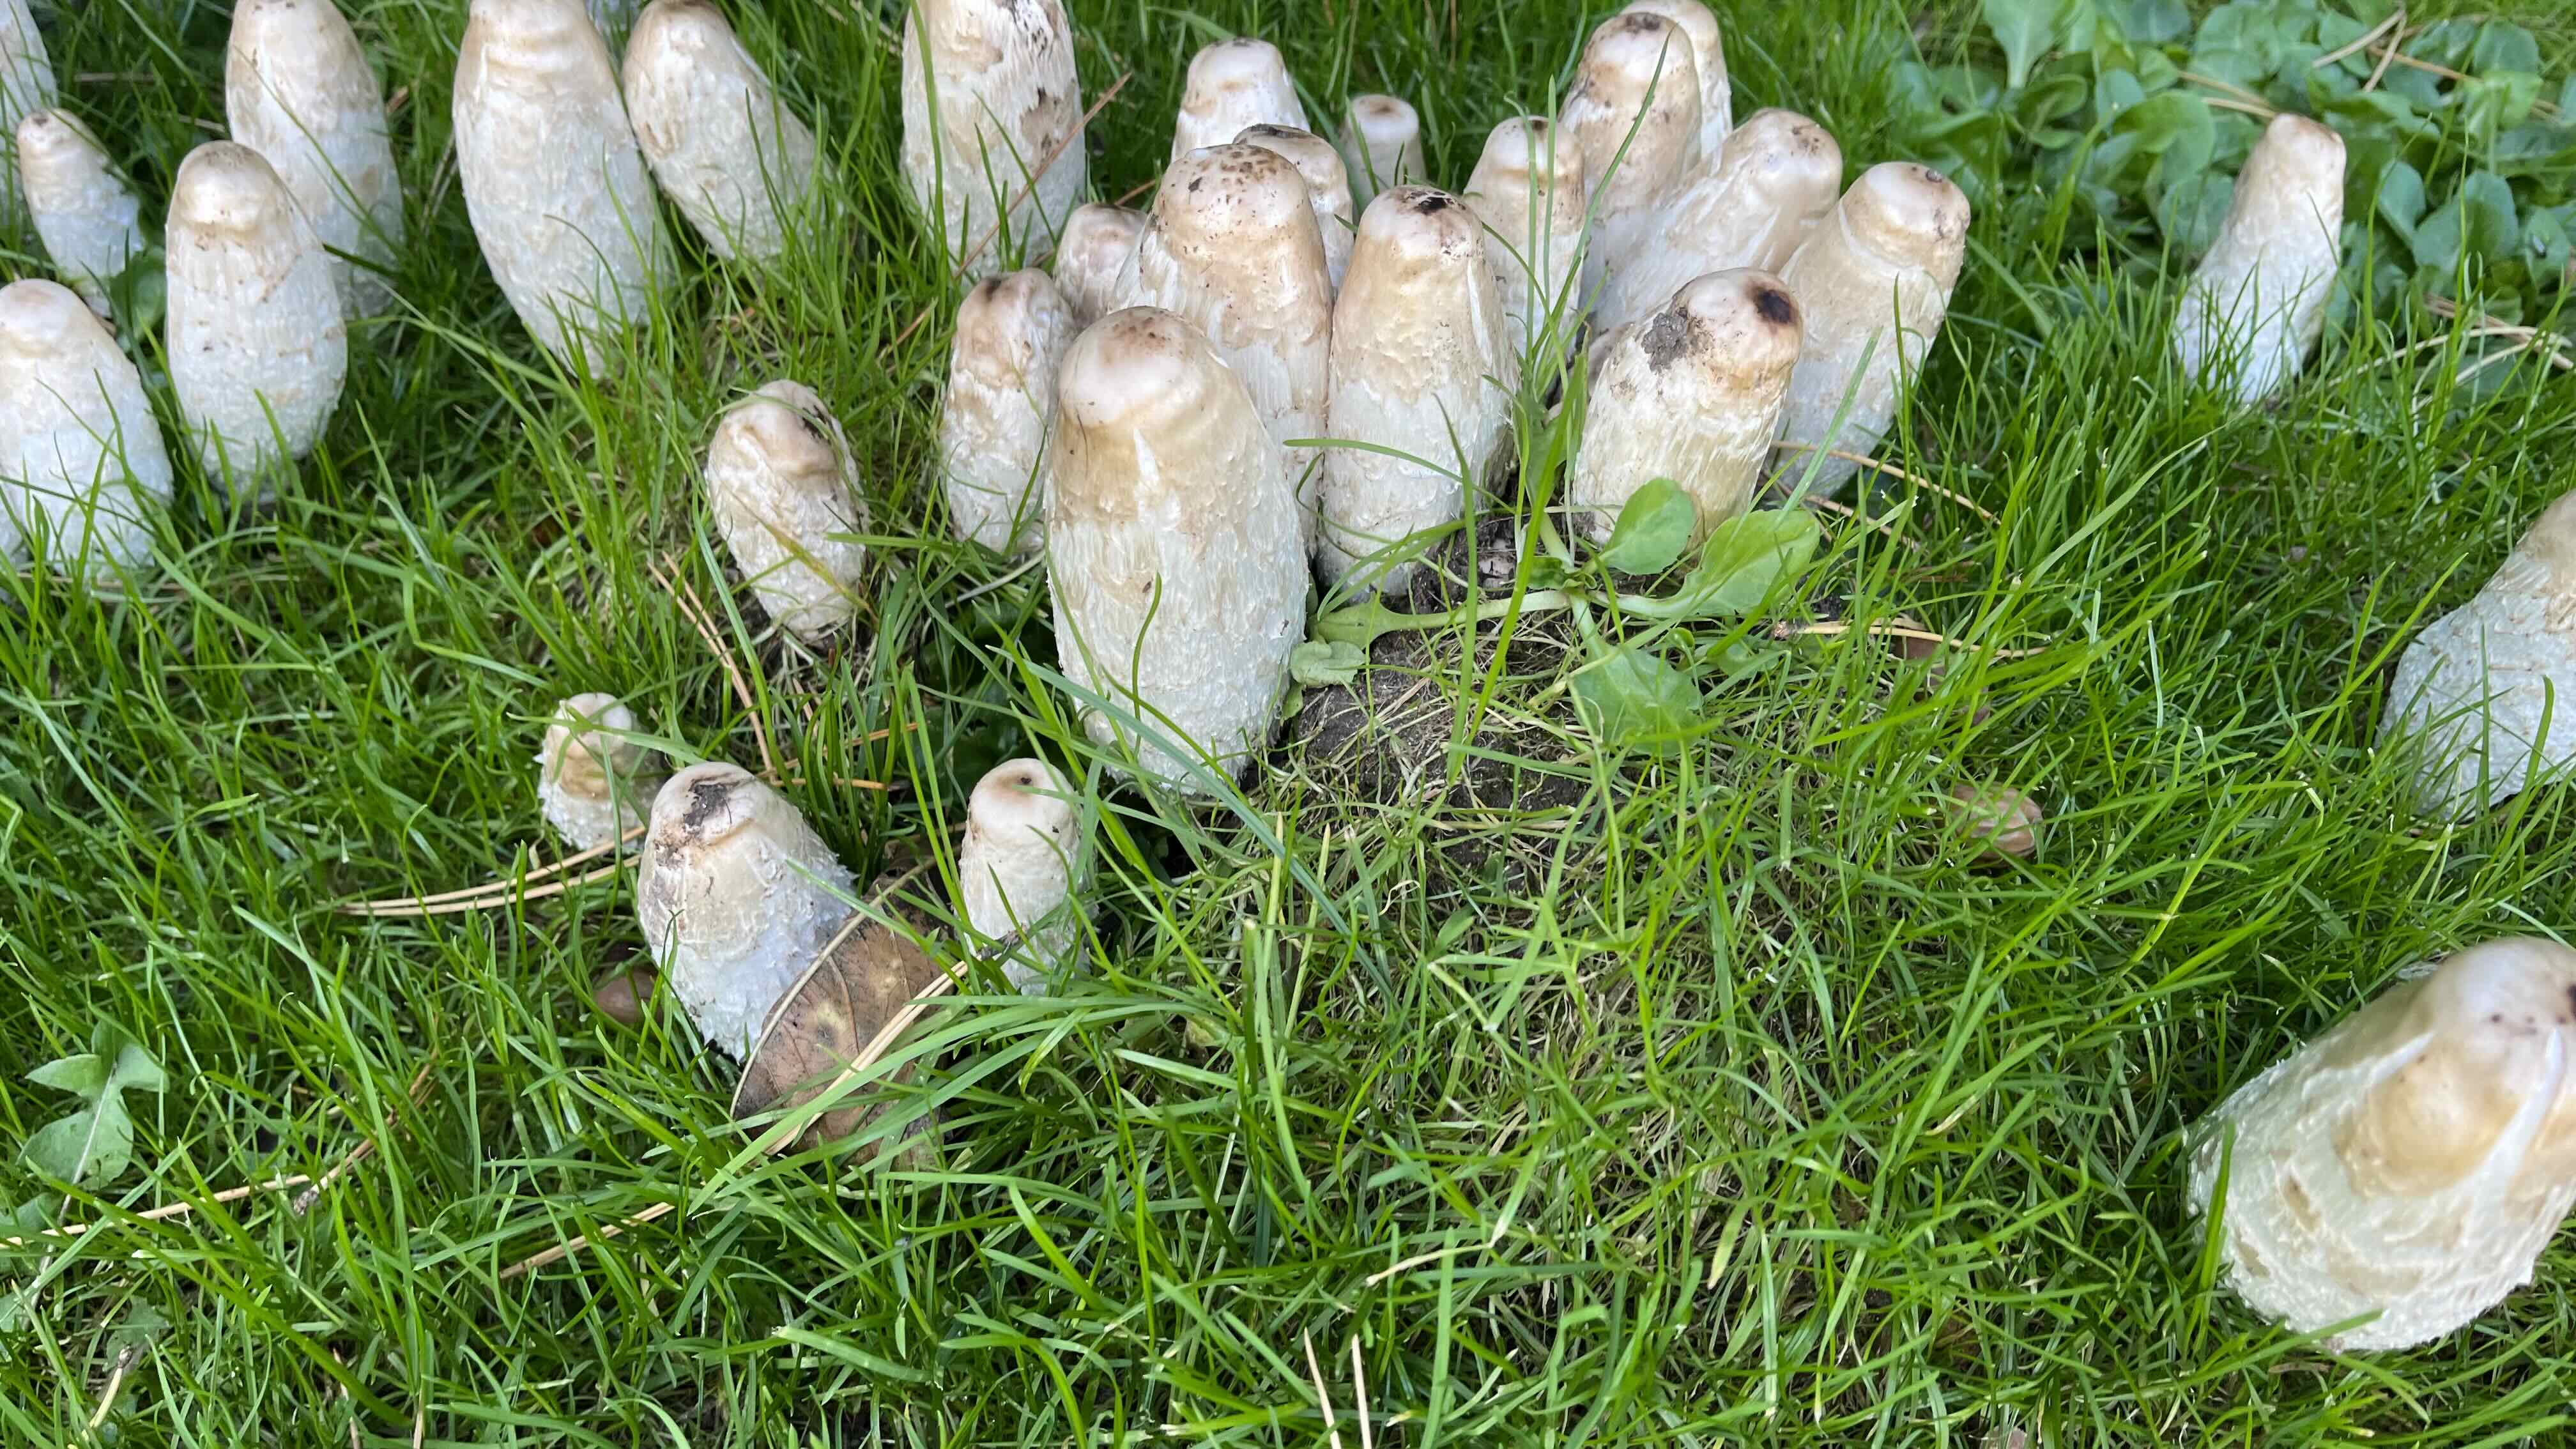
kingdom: Fungi
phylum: Basidiomycota
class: Agaricomycetes
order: Agaricales
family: Agaricaceae
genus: Coprinus
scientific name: Coprinus comatus
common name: stor parykhat
